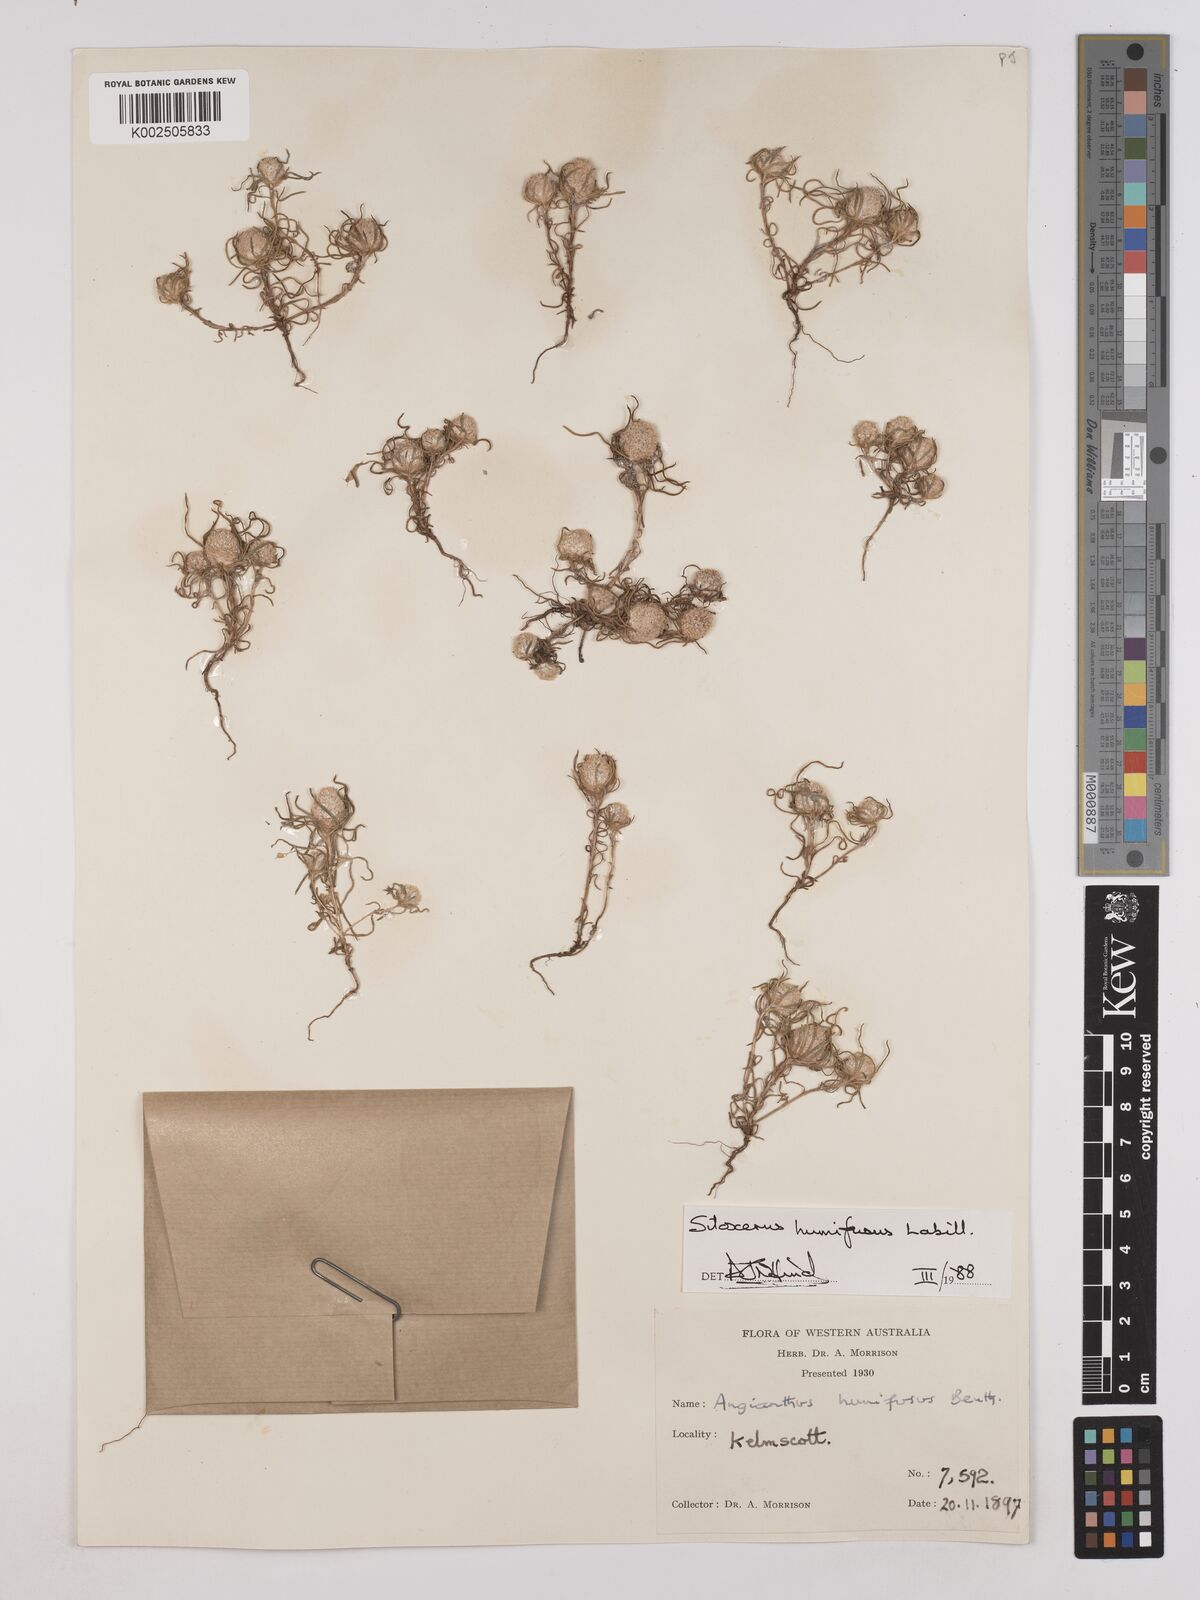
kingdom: Plantae
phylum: Tracheophyta
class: Magnoliopsida
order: Asterales
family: Asteraceae
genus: Siloxerus
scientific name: Siloxerus humifusus
